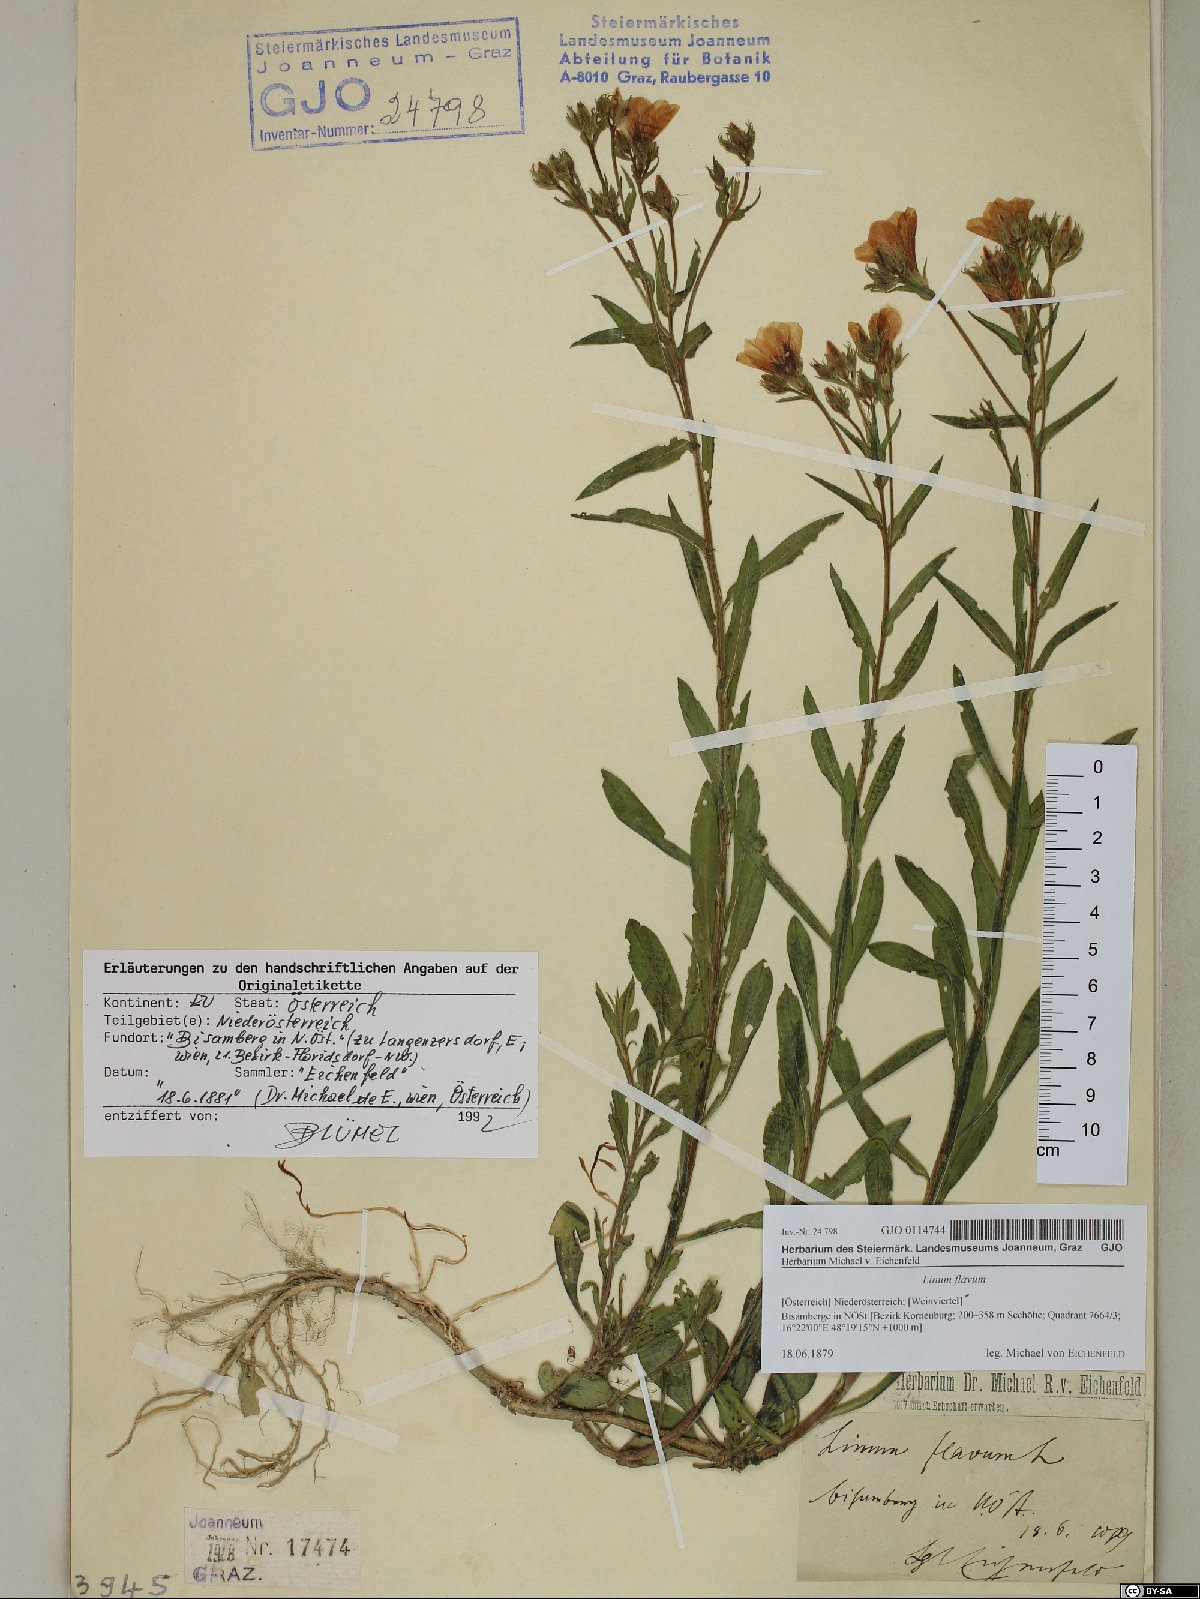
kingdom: Plantae
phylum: Tracheophyta
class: Magnoliopsida
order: Malpighiales
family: Linaceae
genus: Linum
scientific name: Linum flavum
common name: Yellow flax
